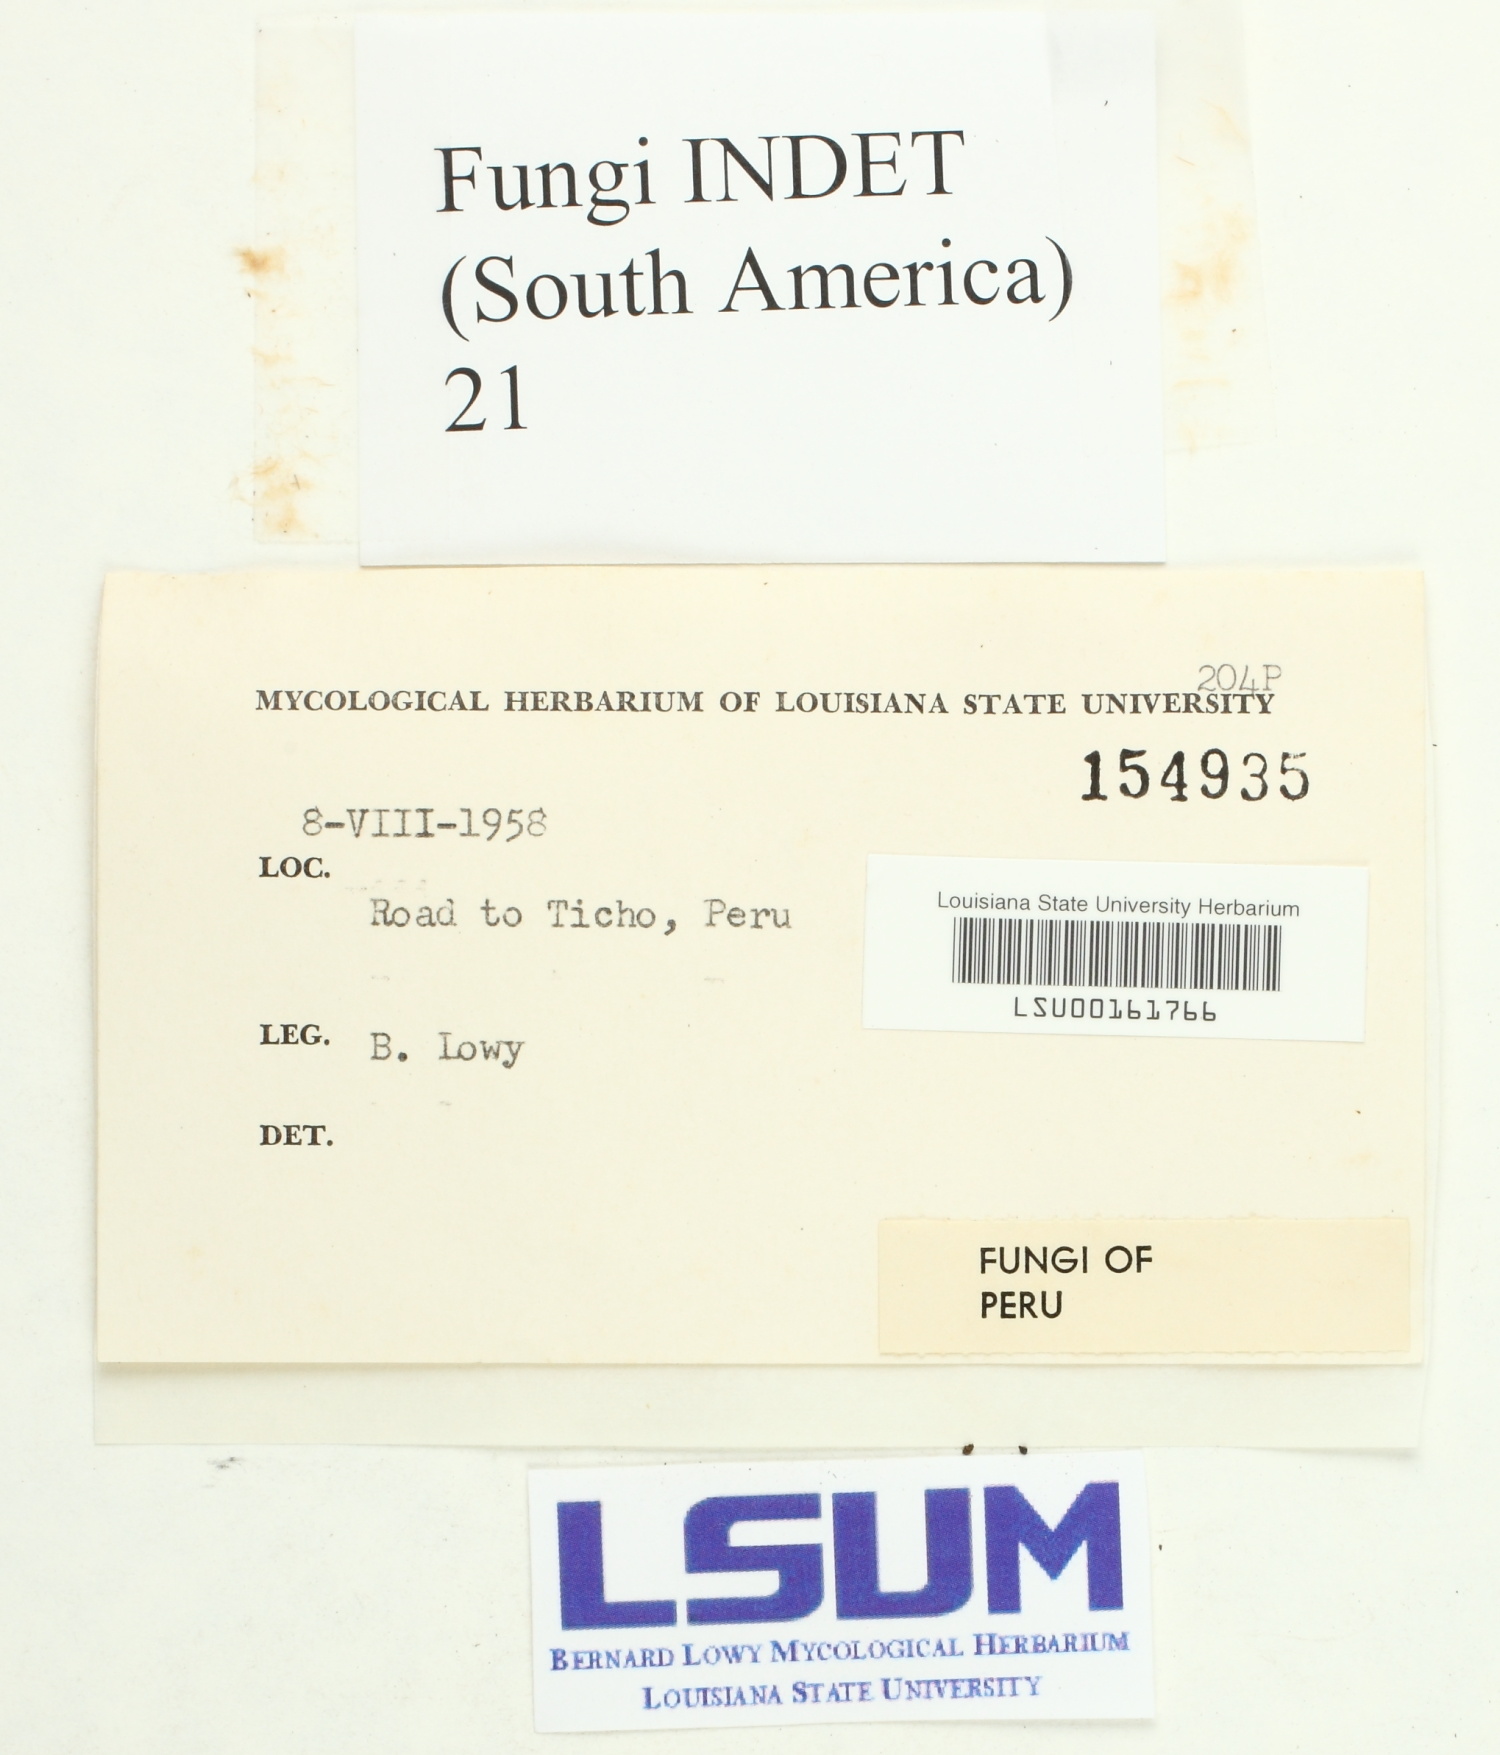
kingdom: Fungi
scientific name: Fungi
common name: Fungi
